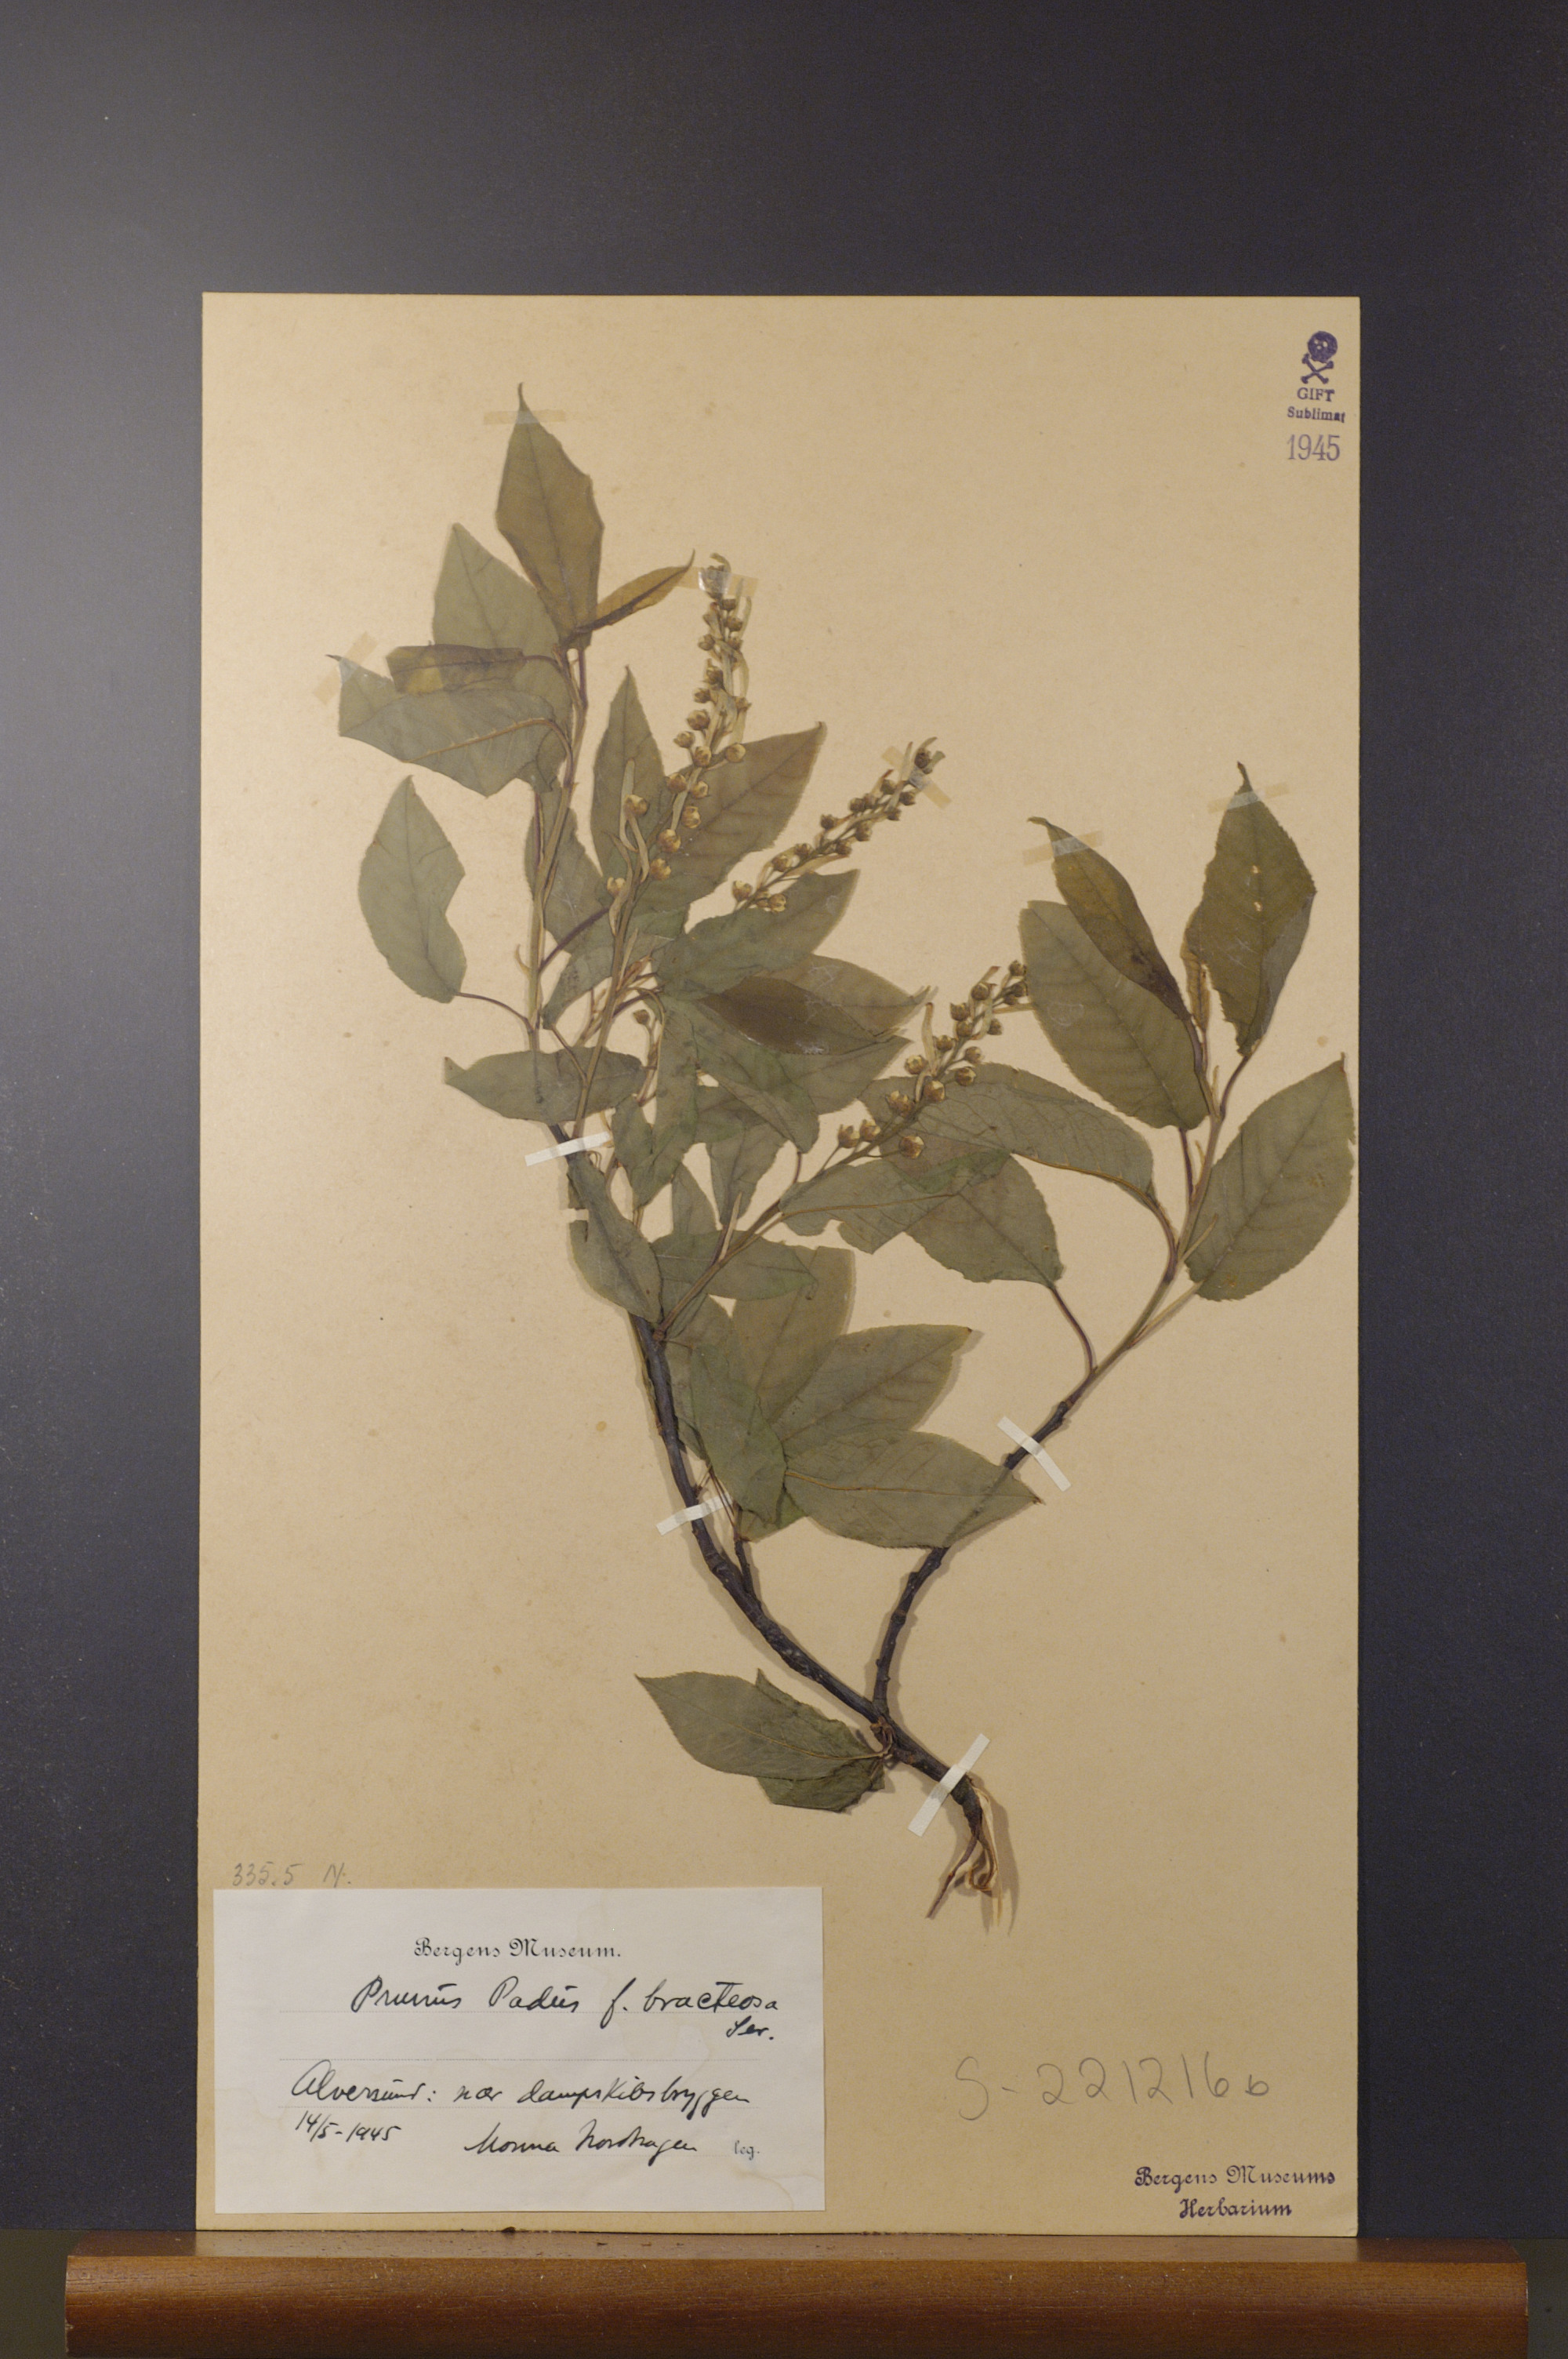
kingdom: Plantae
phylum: Tracheophyta
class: Magnoliopsida
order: Rosales
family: Rosaceae
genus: Prunus
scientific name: Prunus padus
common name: Bird cherry
